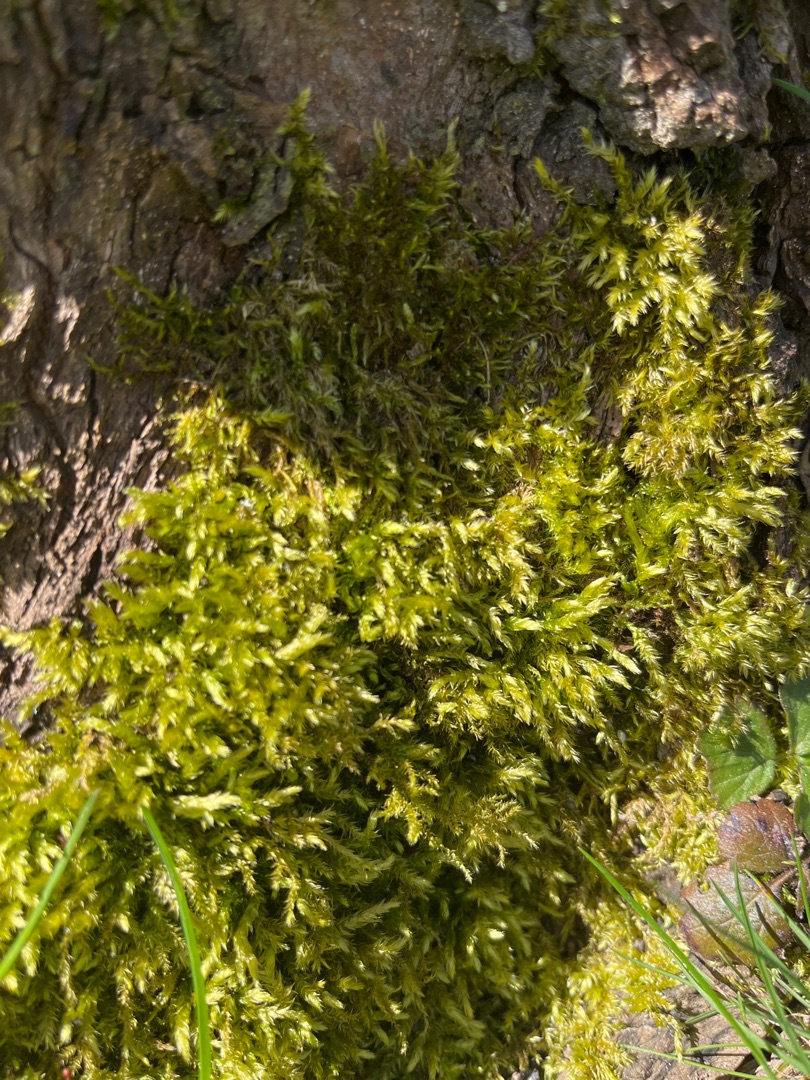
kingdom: Plantae
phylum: Bryophyta
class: Bryopsida
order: Hypnales
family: Brachytheciaceae
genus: Brachythecium
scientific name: Brachythecium
